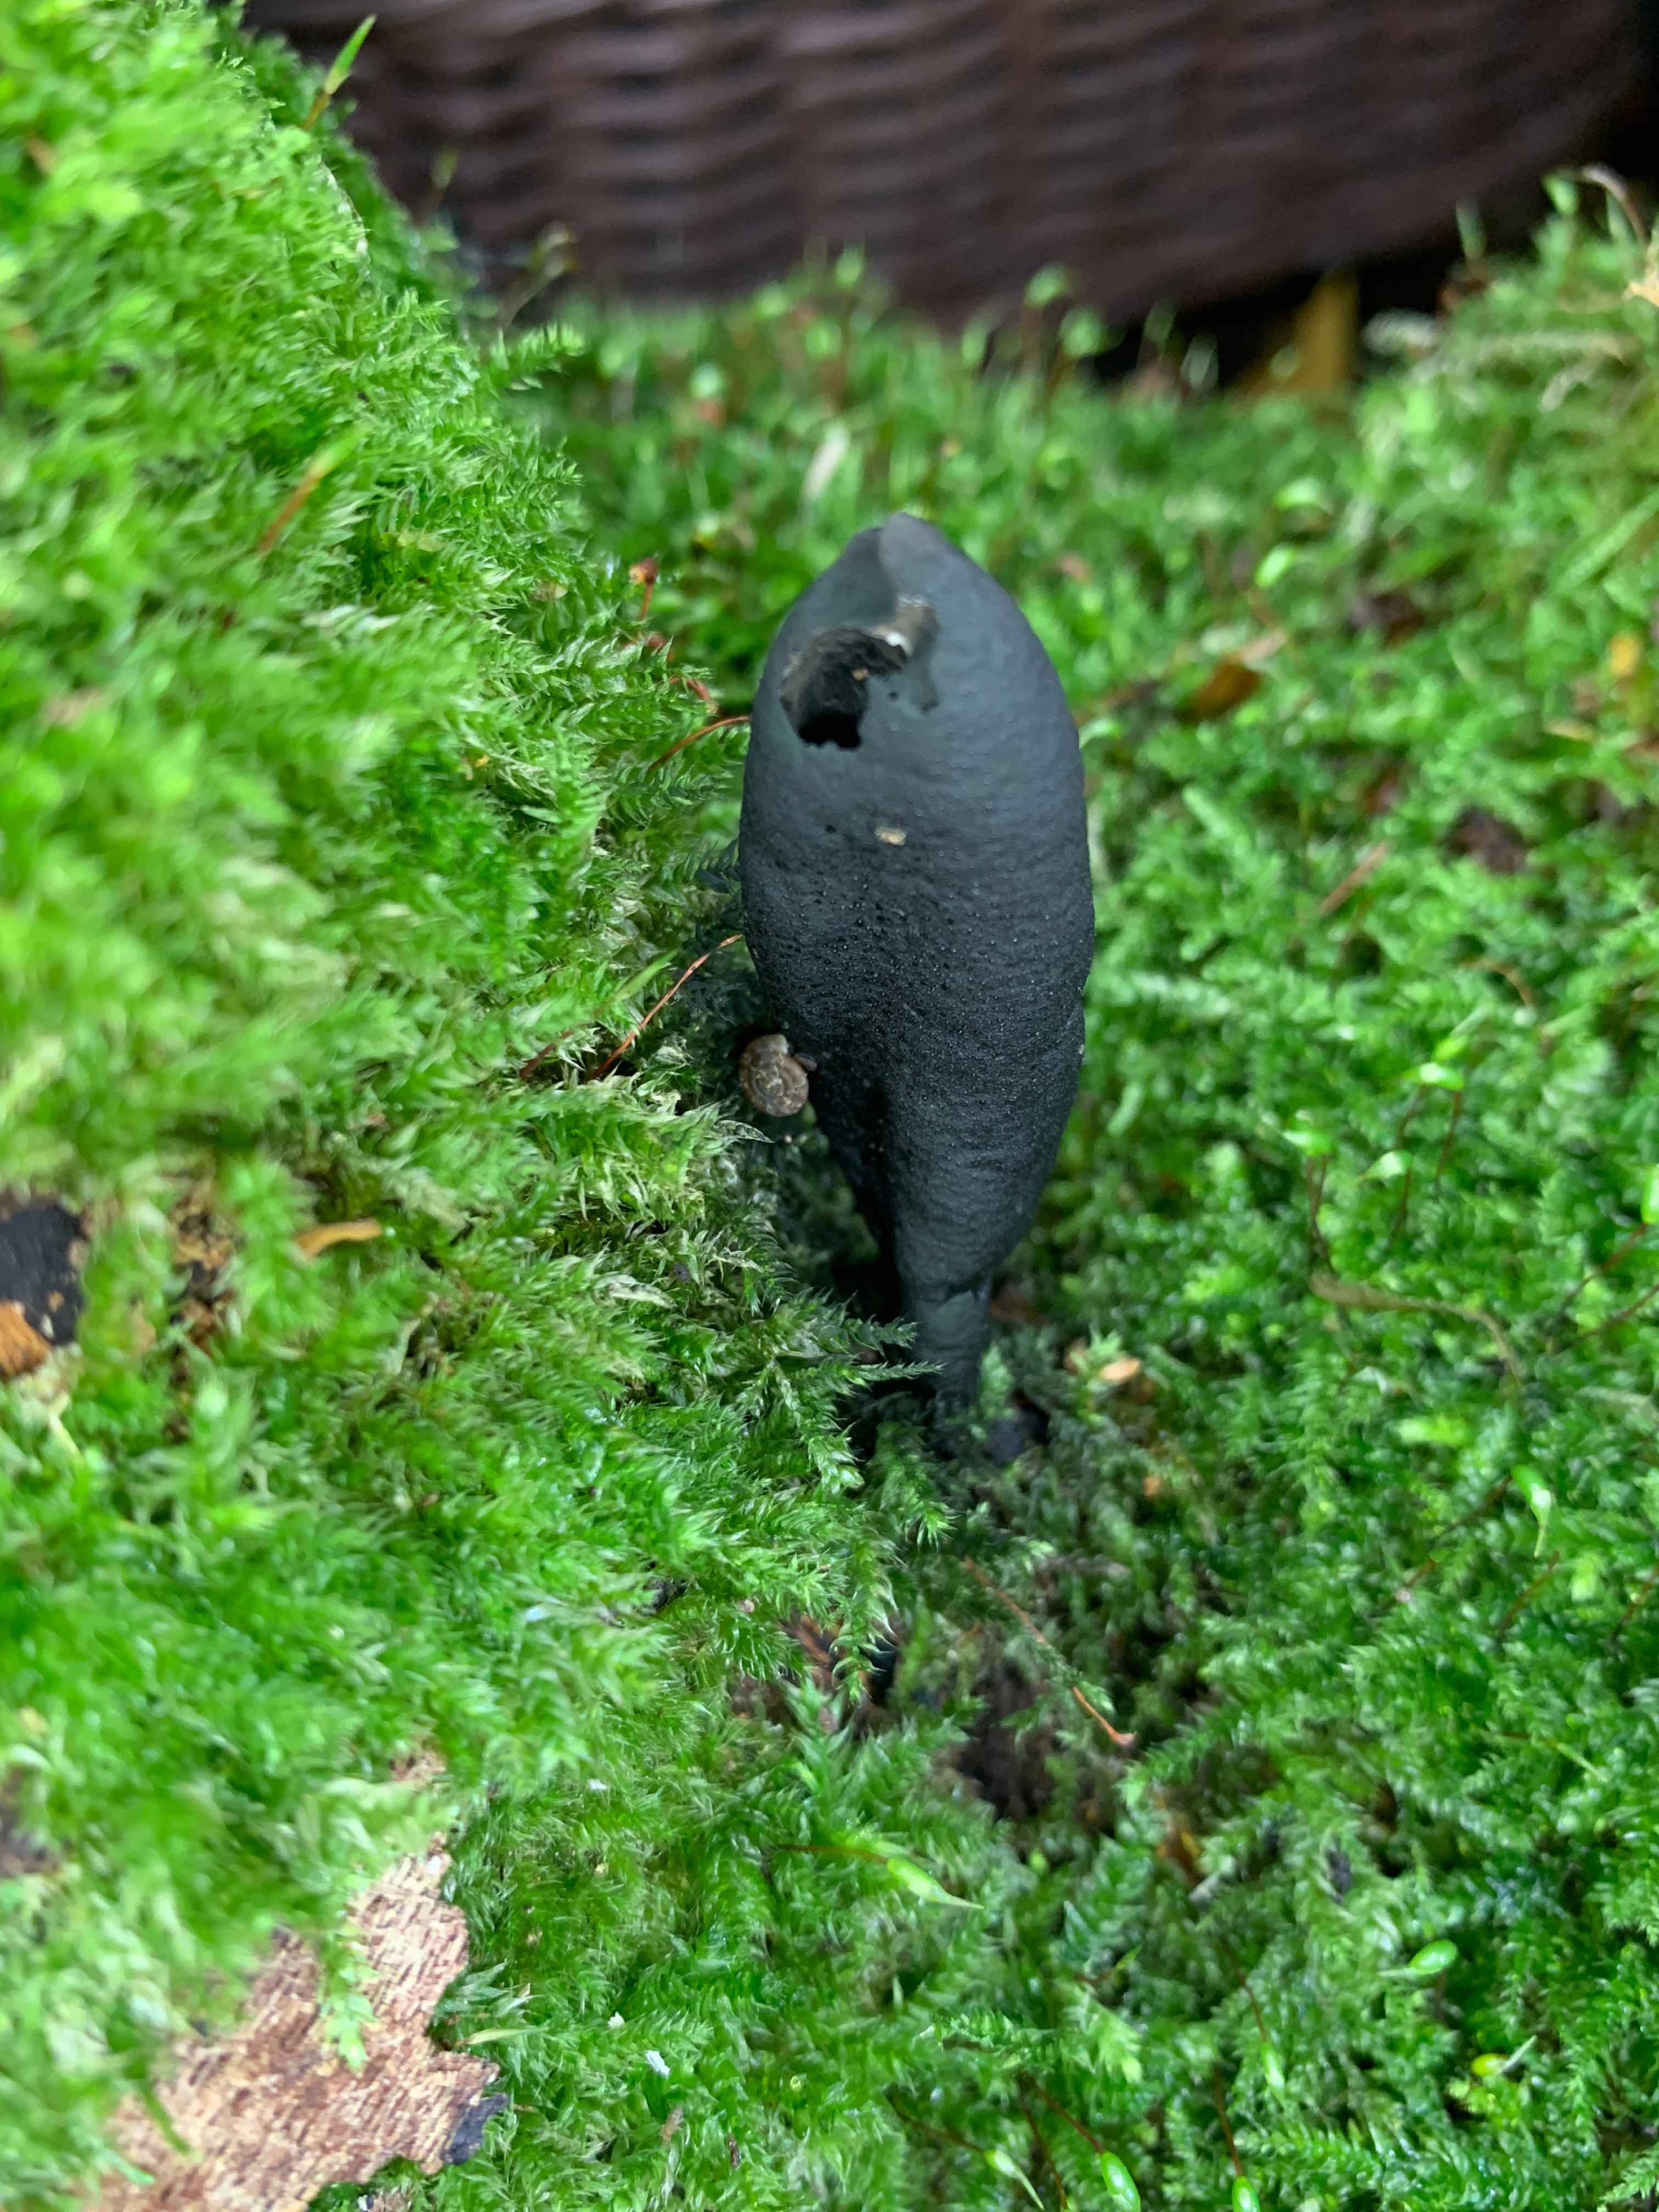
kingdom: Fungi
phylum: Ascomycota
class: Sordariomycetes
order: Xylariales
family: Xylariaceae
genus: Xylaria
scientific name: Xylaria longipes
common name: slank stødsvamp
